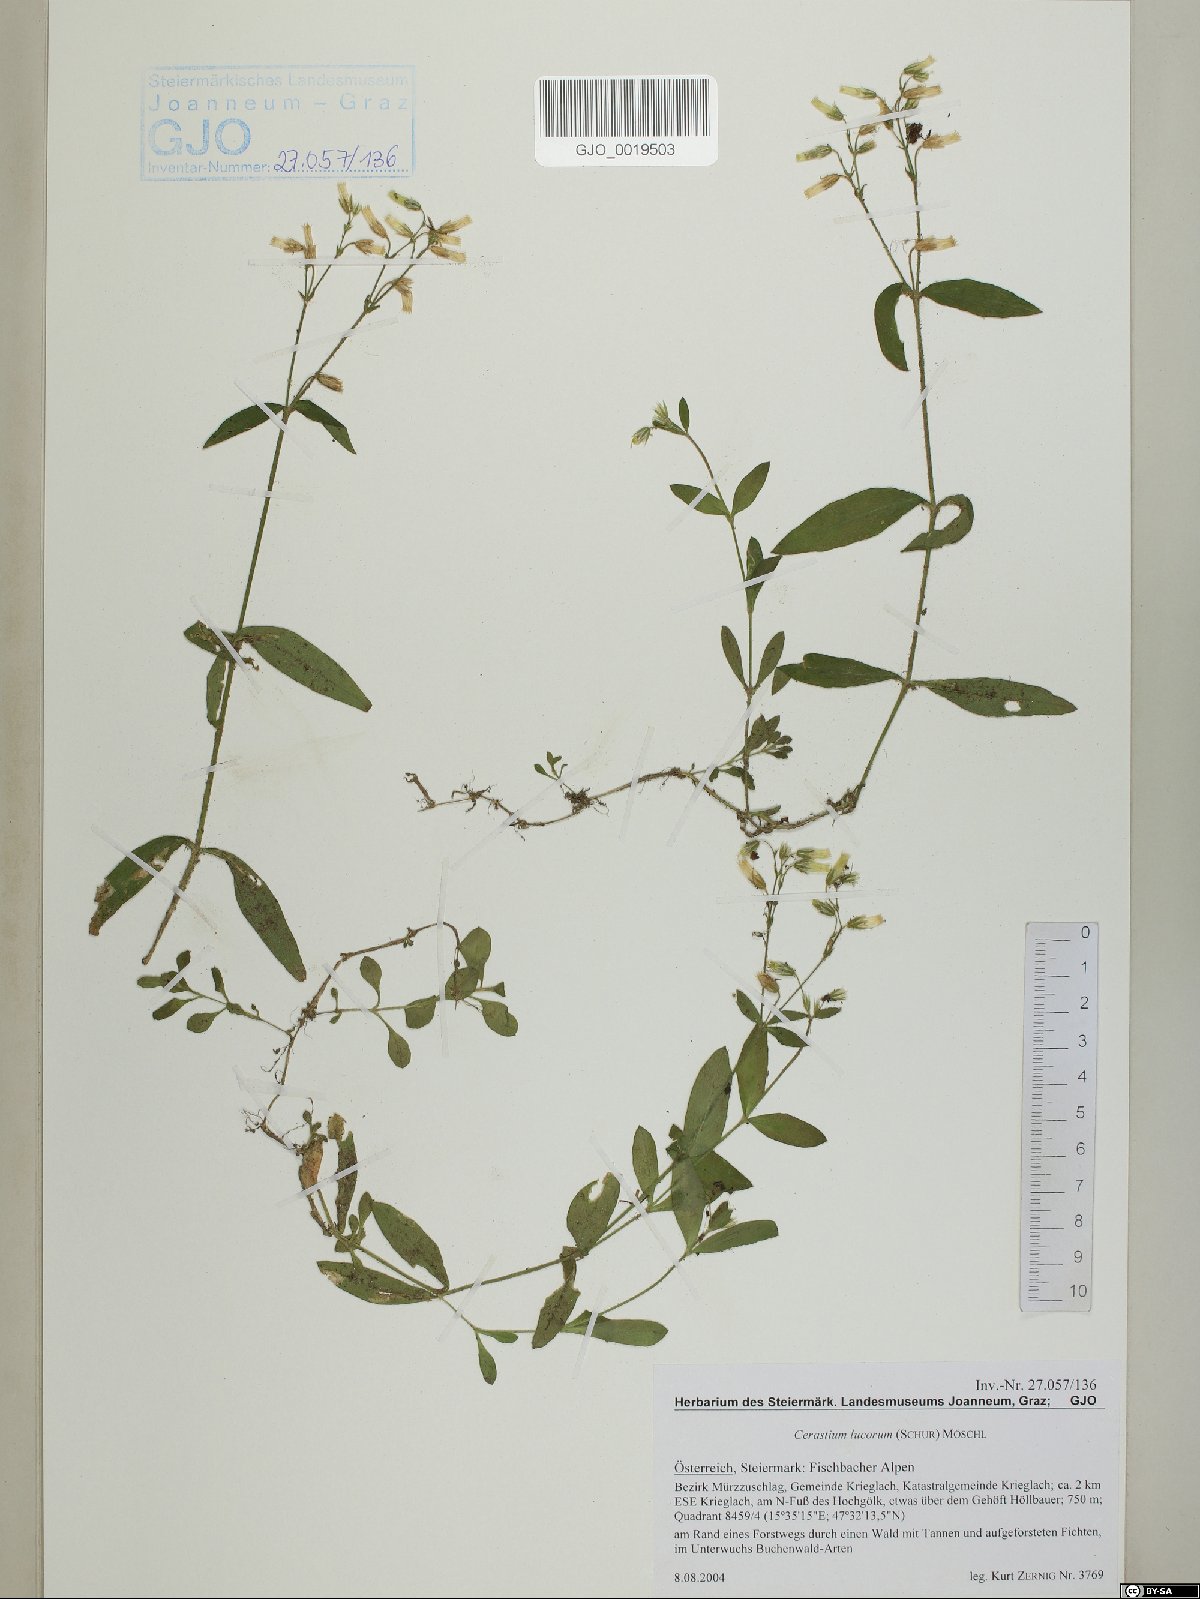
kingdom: Plantae
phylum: Tracheophyta
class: Magnoliopsida
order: Caryophyllales
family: Caryophyllaceae
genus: Cerastium
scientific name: Cerastium lucorum
